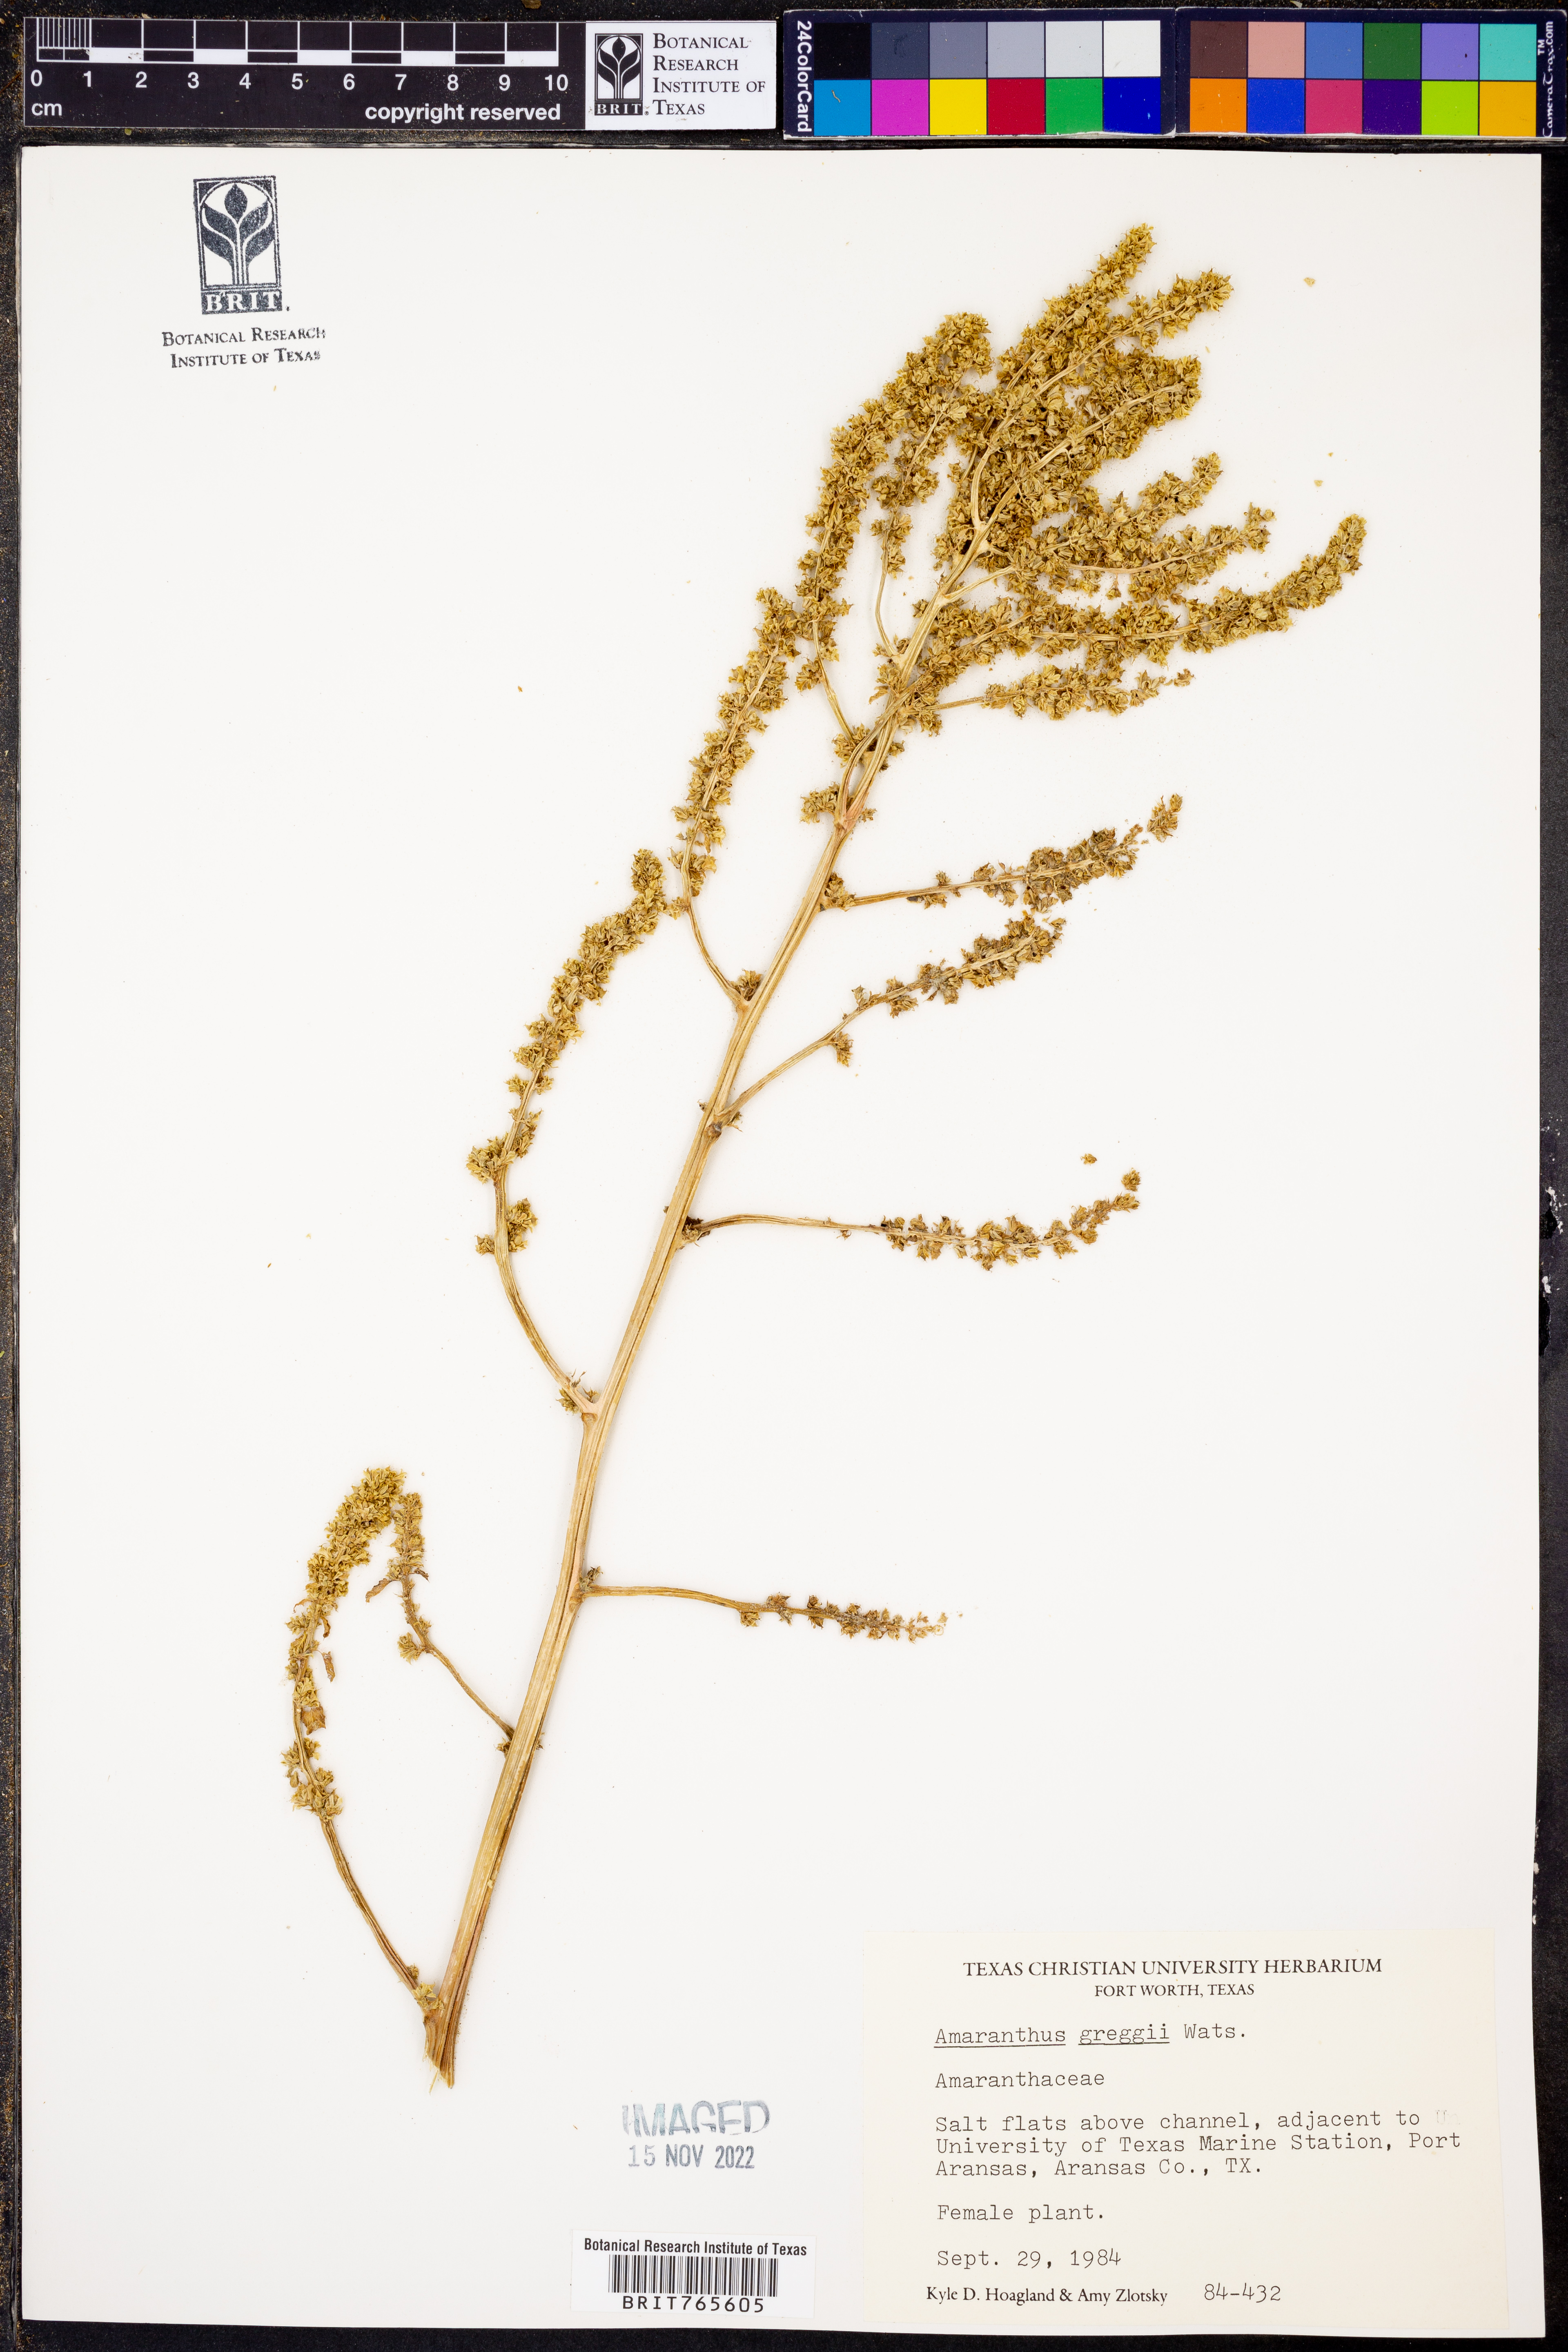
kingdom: Plantae
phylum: Tracheophyta
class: Magnoliopsida
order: Caryophyllales
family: Amaranthaceae
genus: Amaranthus
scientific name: Amaranthus greggii
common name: Josiah amaranth
